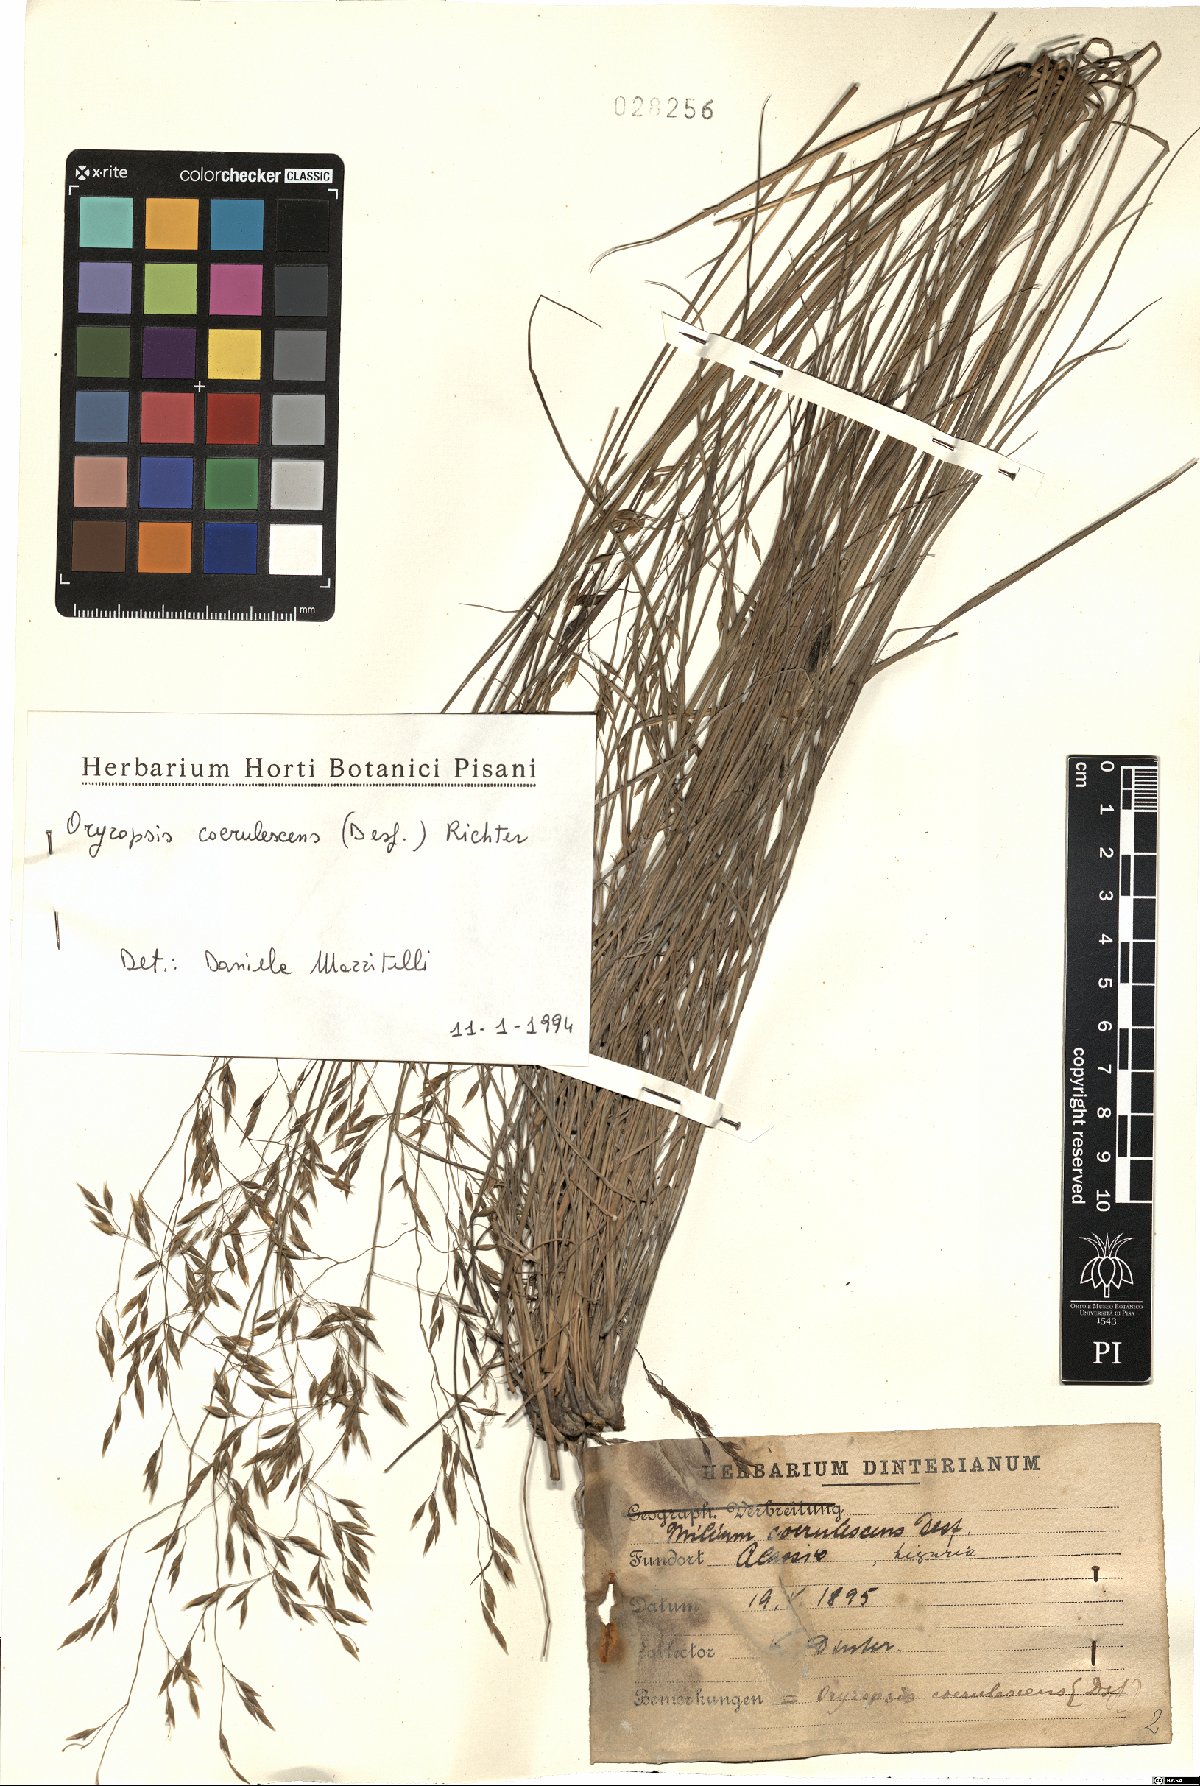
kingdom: Plantae
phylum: Tracheophyta
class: Liliopsida
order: Poales
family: Poaceae
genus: Piptatherum
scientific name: Piptatherum coerulescens
